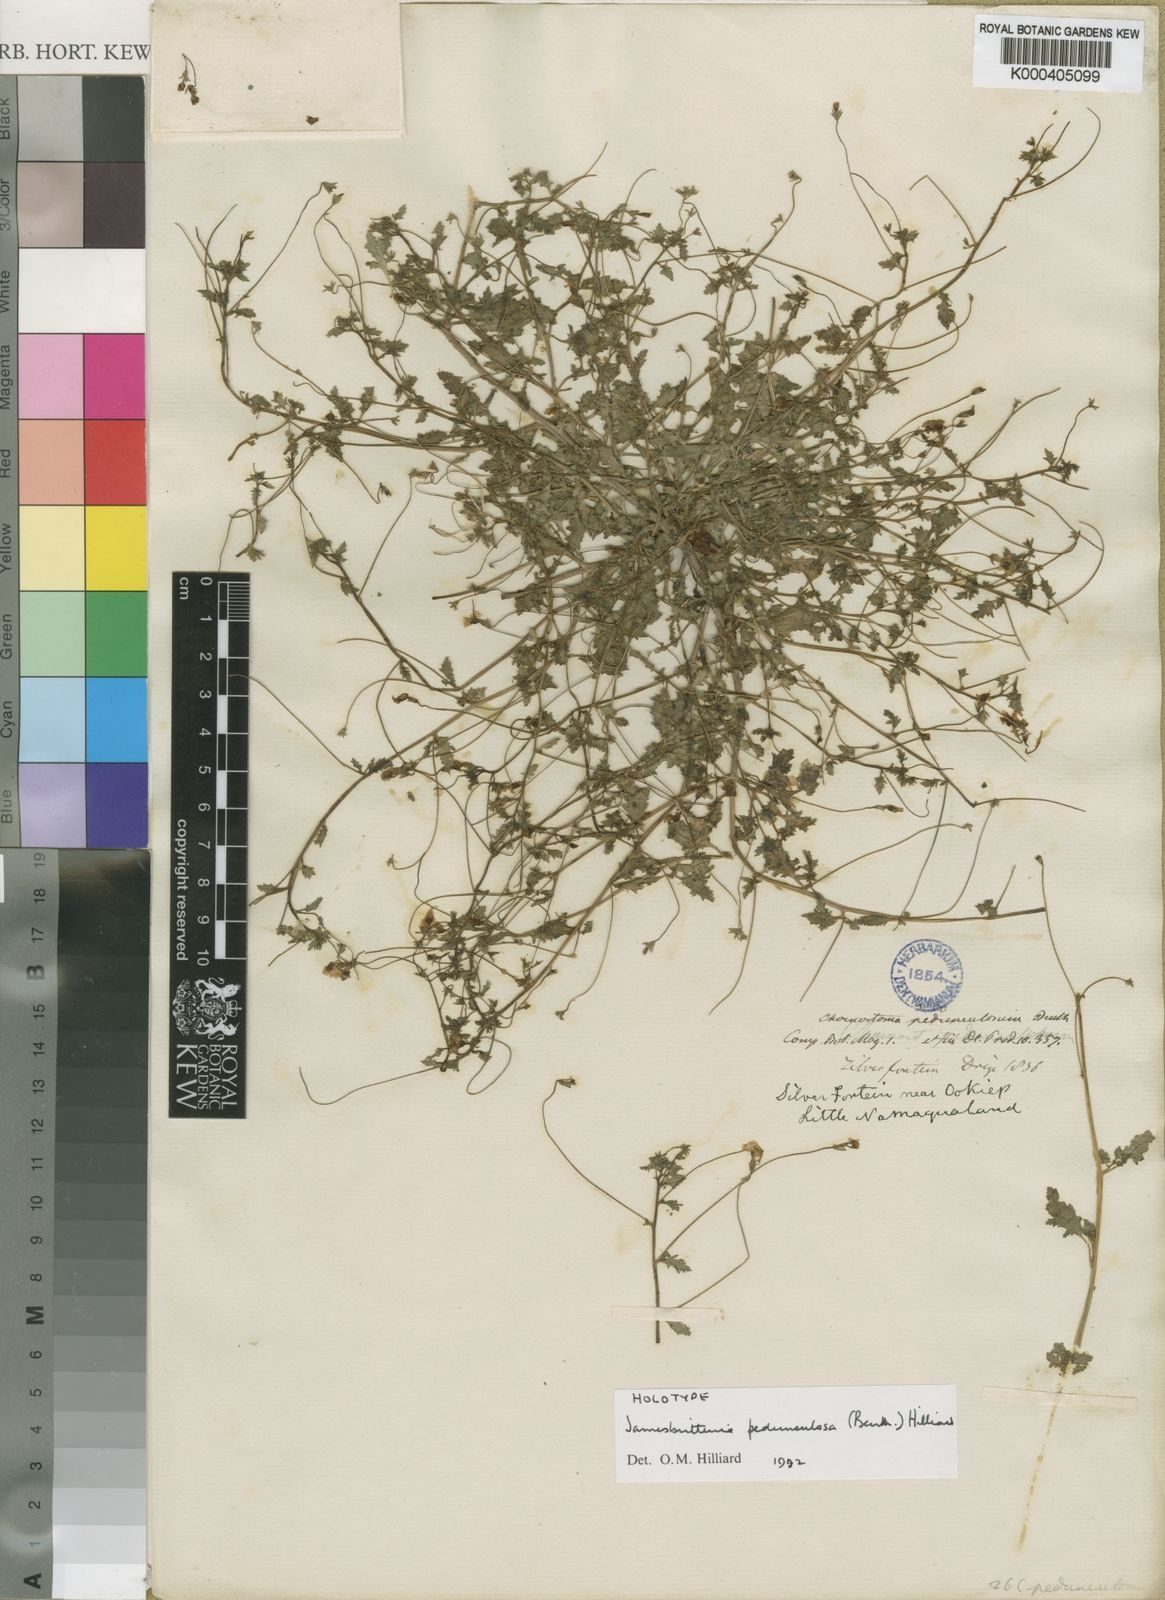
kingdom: Plantae
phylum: Tracheophyta
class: Magnoliopsida
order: Lamiales
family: Scrophulariaceae
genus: Jamesbrittenia
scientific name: Jamesbrittenia pedunculosa
